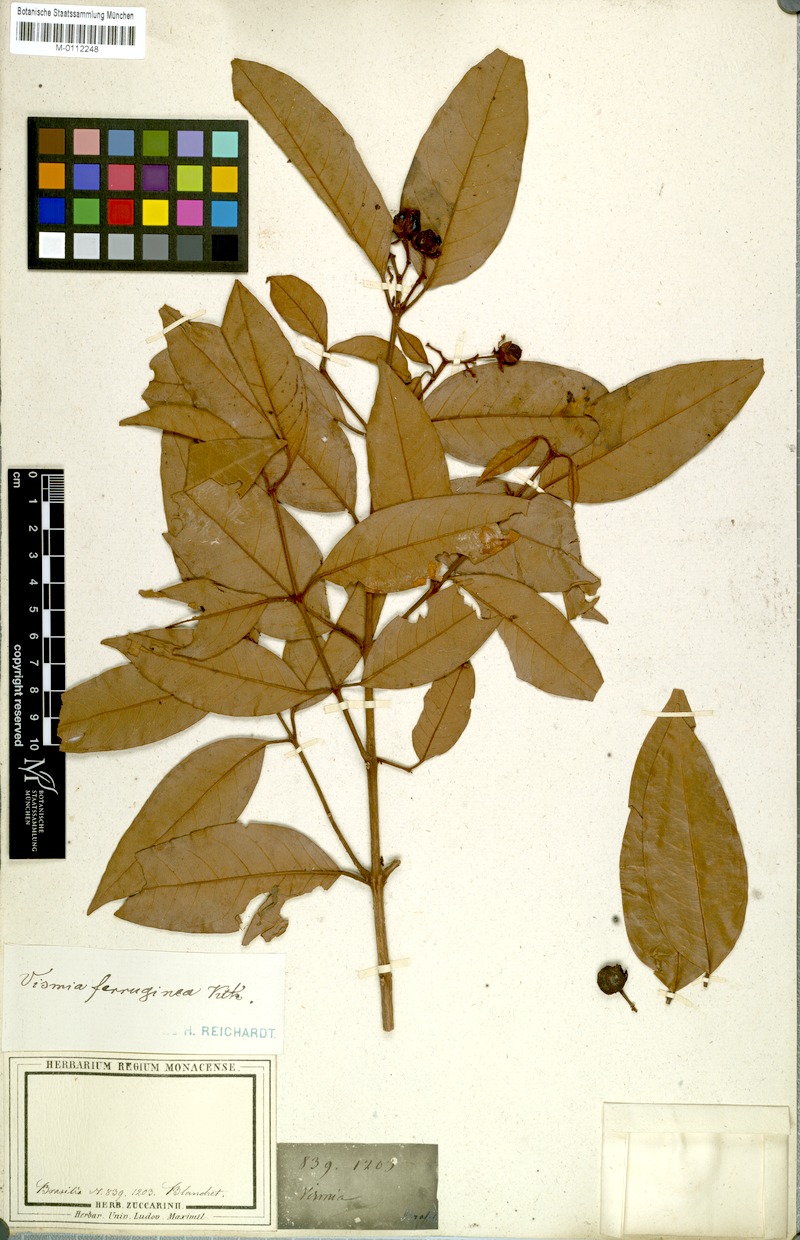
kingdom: Plantae
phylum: Tracheophyta
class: Magnoliopsida
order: Malpighiales
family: Hypericaceae
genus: Vismia
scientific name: Vismia ferruginea
